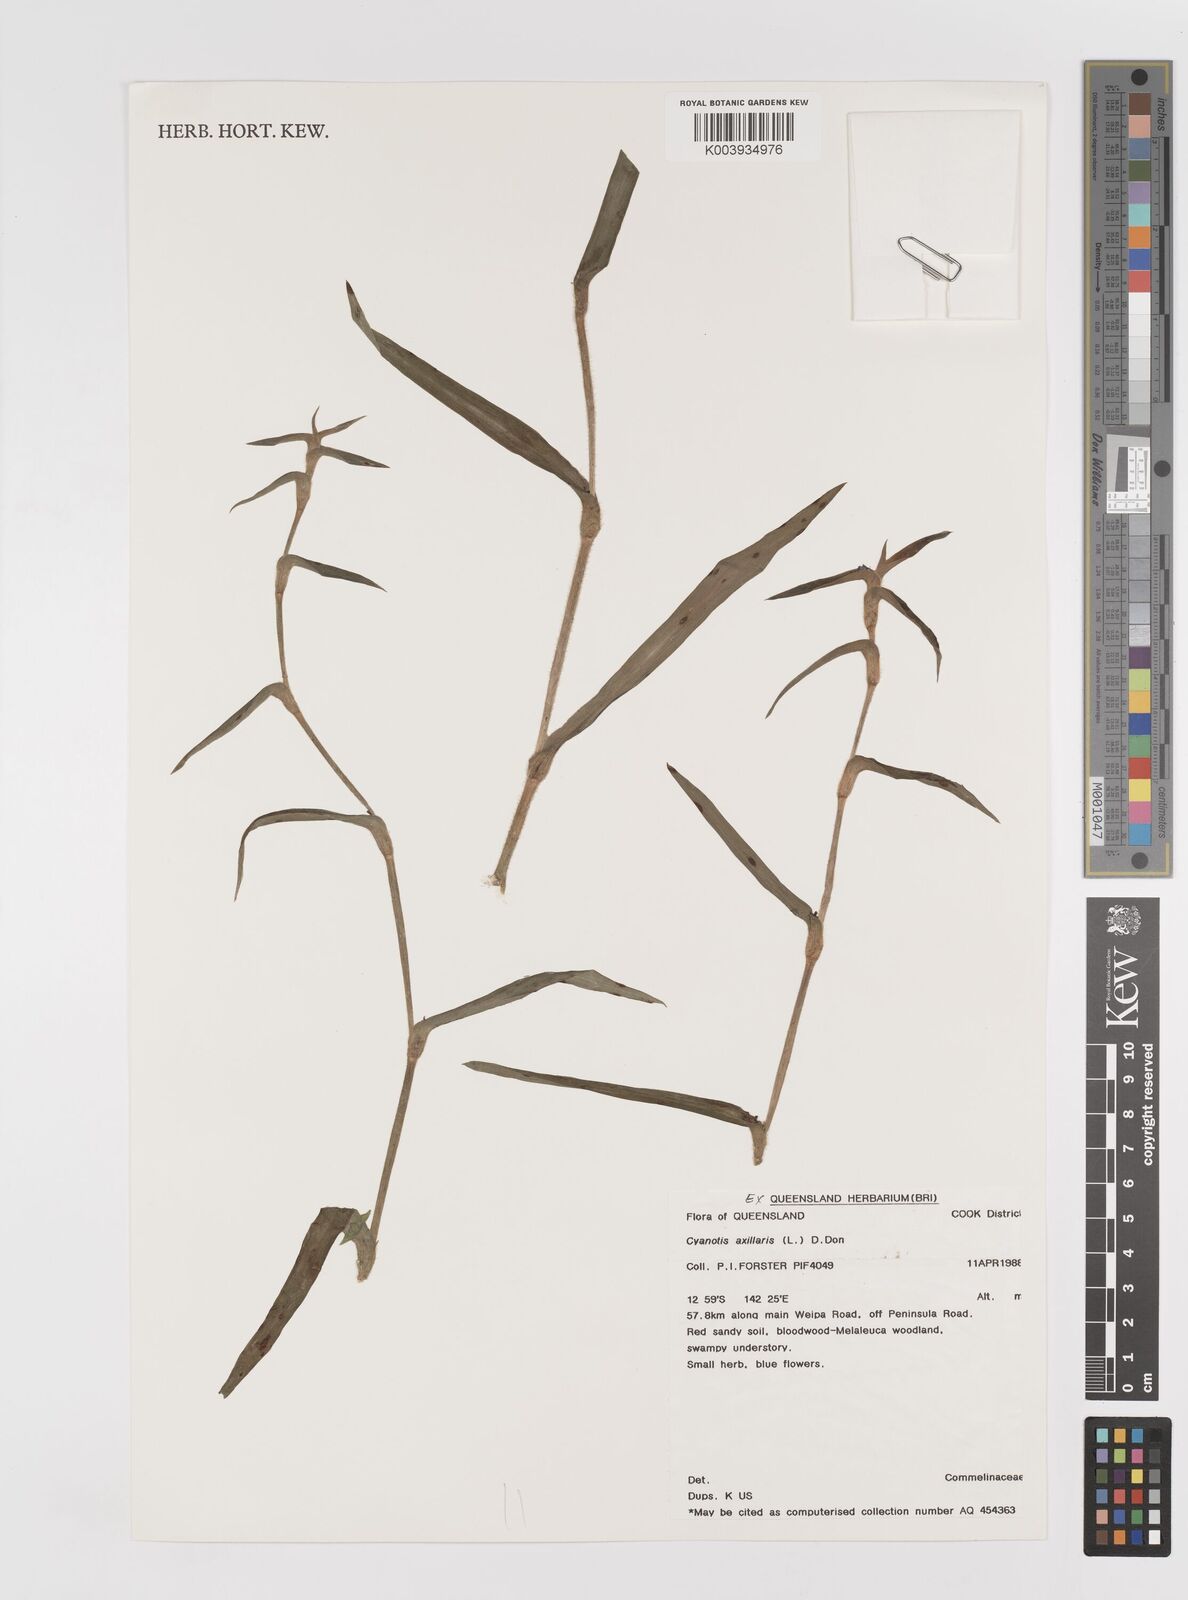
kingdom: Plantae
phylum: Tracheophyta
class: Liliopsida
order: Commelinales
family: Commelinaceae
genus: Cyanotis
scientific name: Cyanotis axillaris
